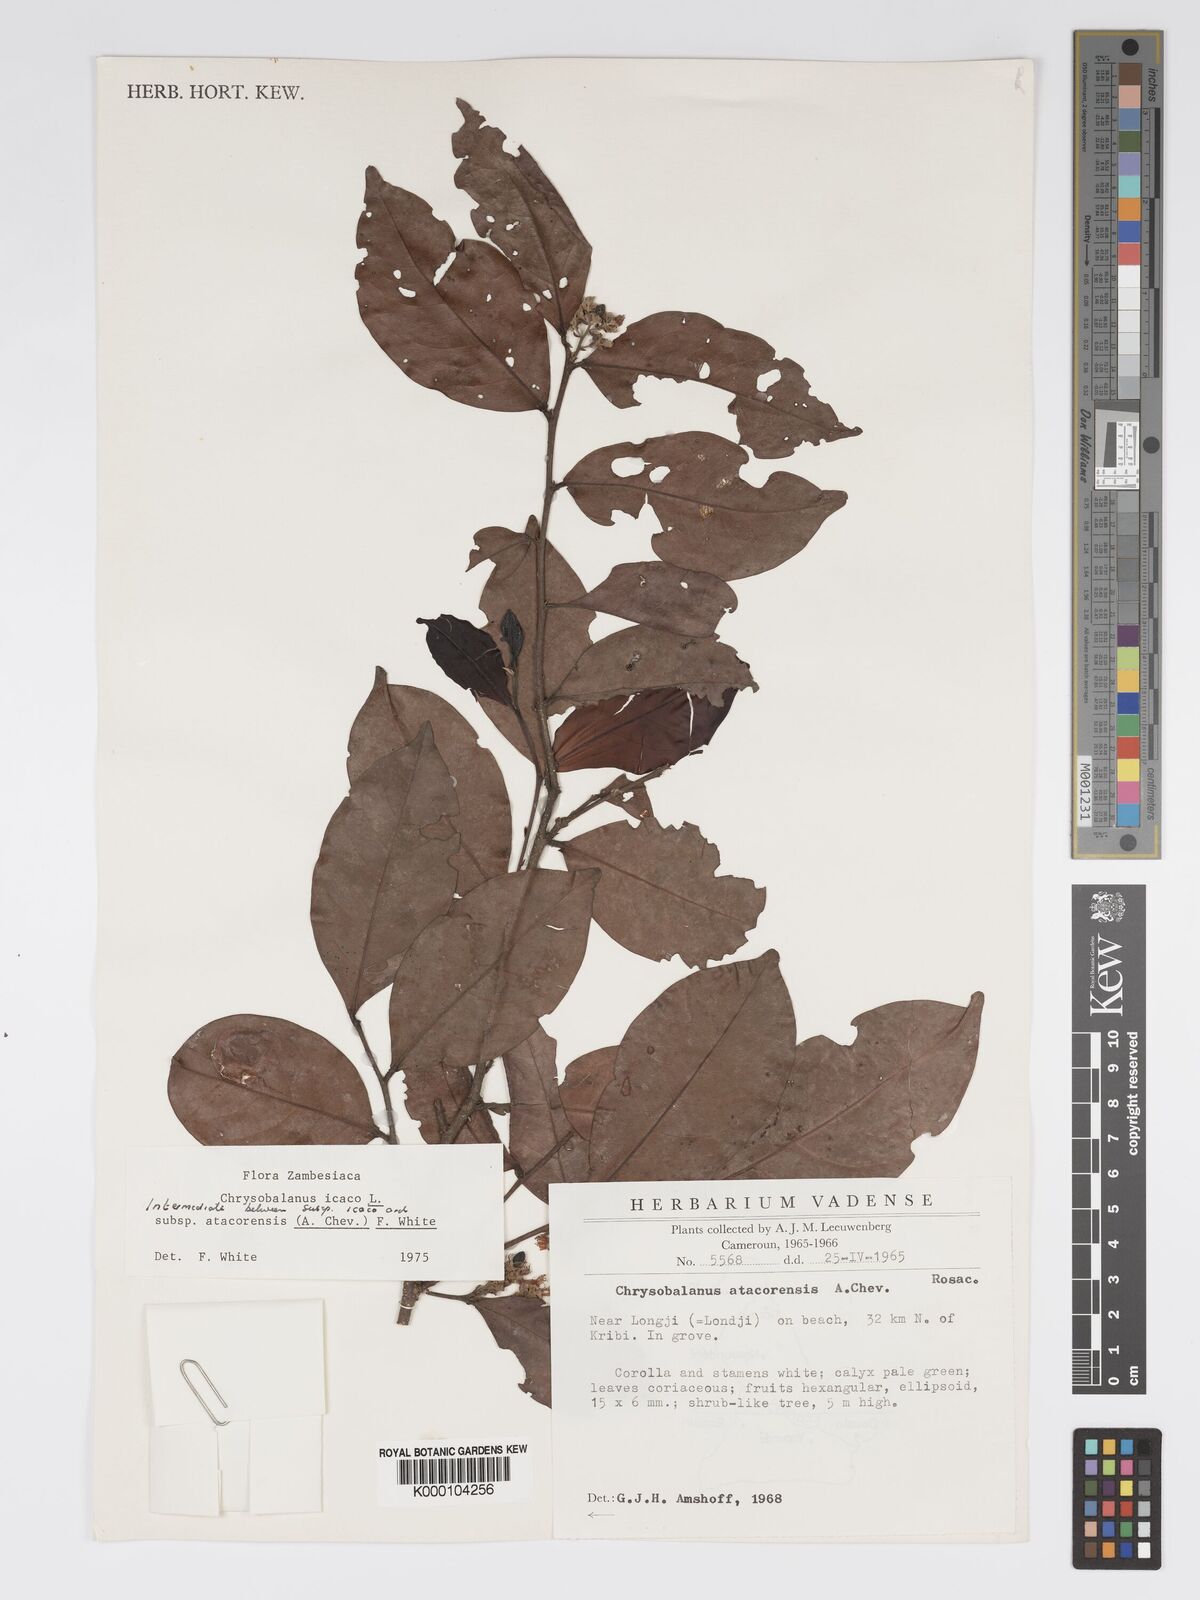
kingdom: Plantae
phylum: Tracheophyta
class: Magnoliopsida
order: Malpighiales
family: Chrysobalanaceae
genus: Chrysobalanus
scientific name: Chrysobalanus icaco
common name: Coco plum
